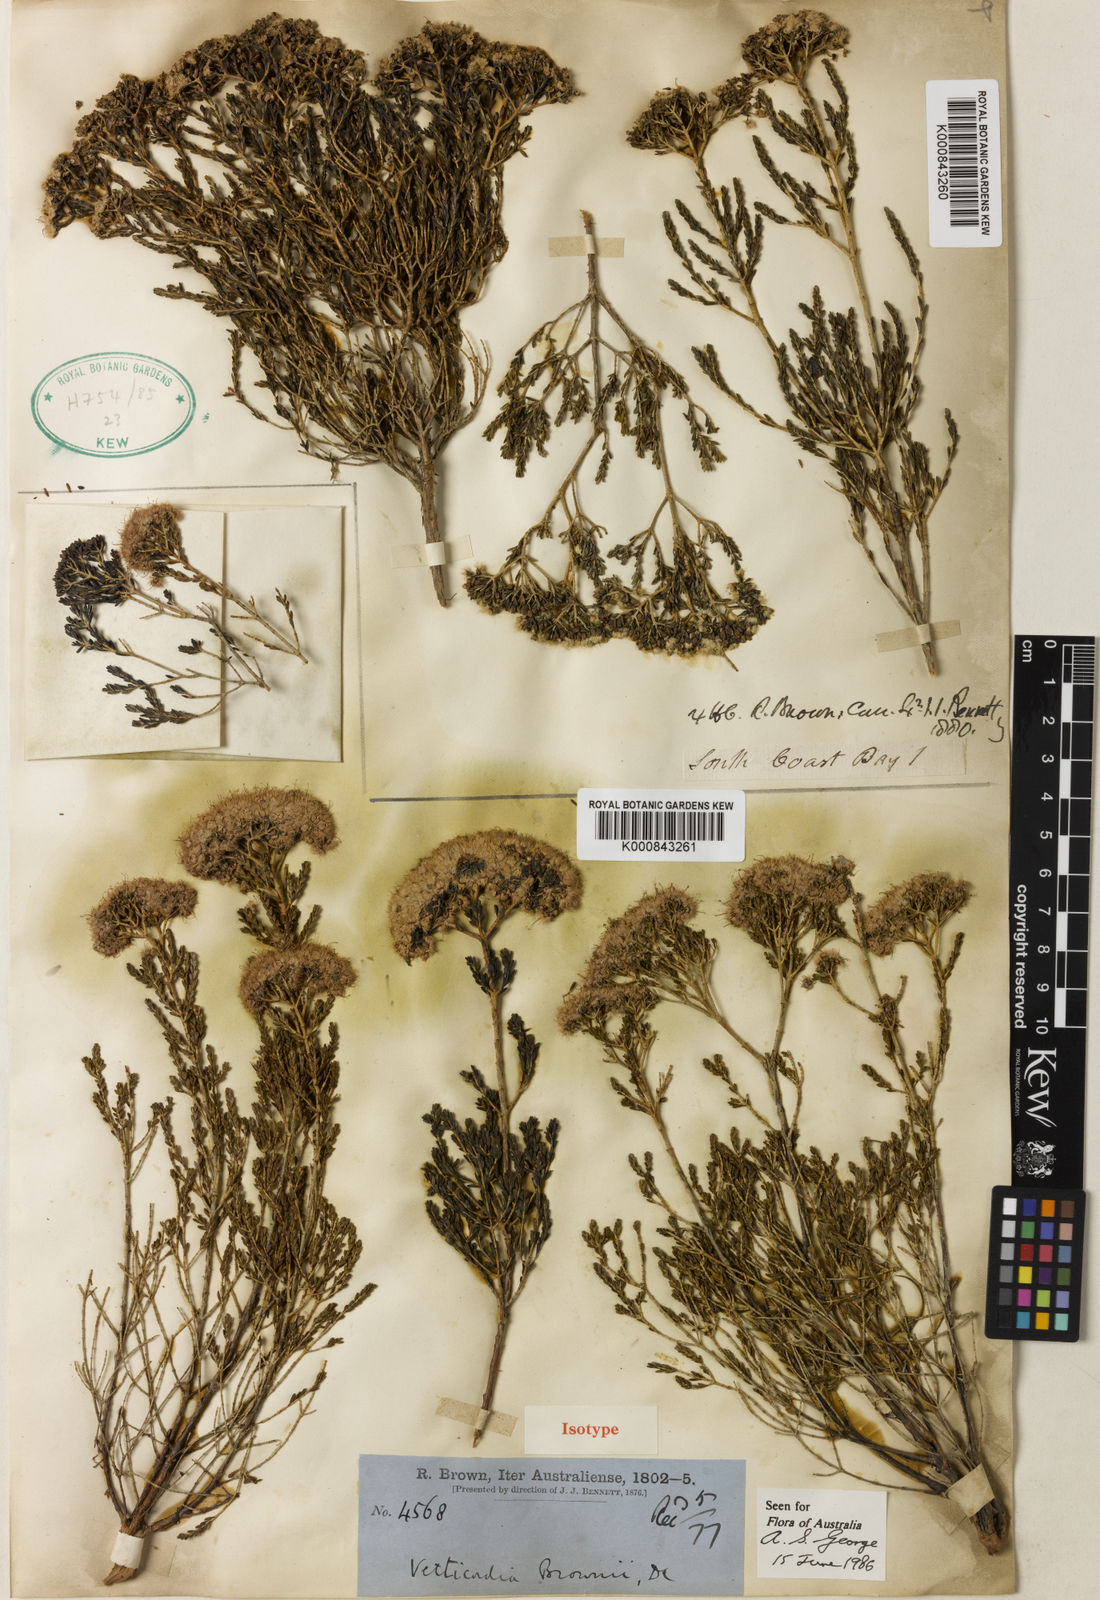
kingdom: Plantae
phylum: Tracheophyta
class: Magnoliopsida
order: Myrtales
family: Myrtaceae
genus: Verticordia
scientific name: Verticordia brownii
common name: Wild cauliflower
